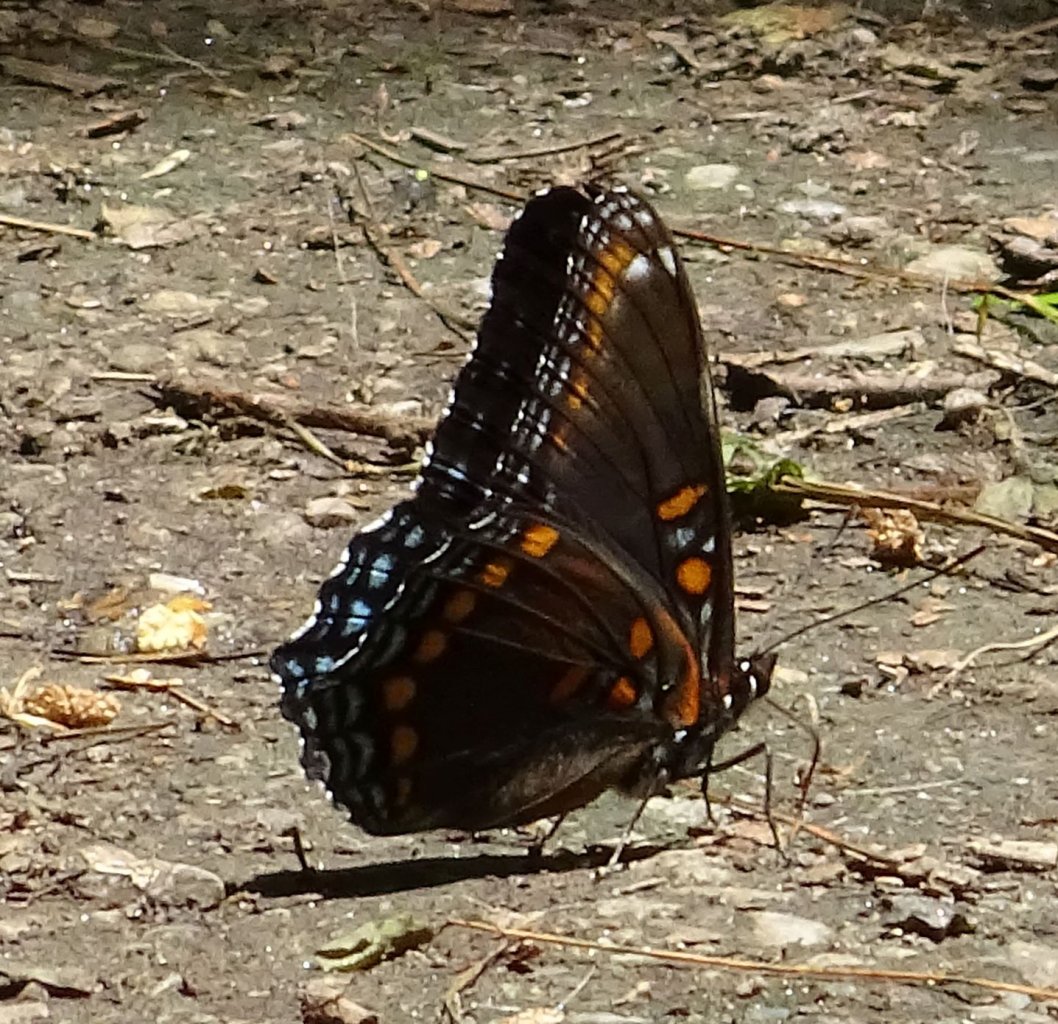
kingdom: Animalia
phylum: Arthropoda
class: Insecta
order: Lepidoptera
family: Nymphalidae
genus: Limenitis
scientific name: Limenitis astyanax
